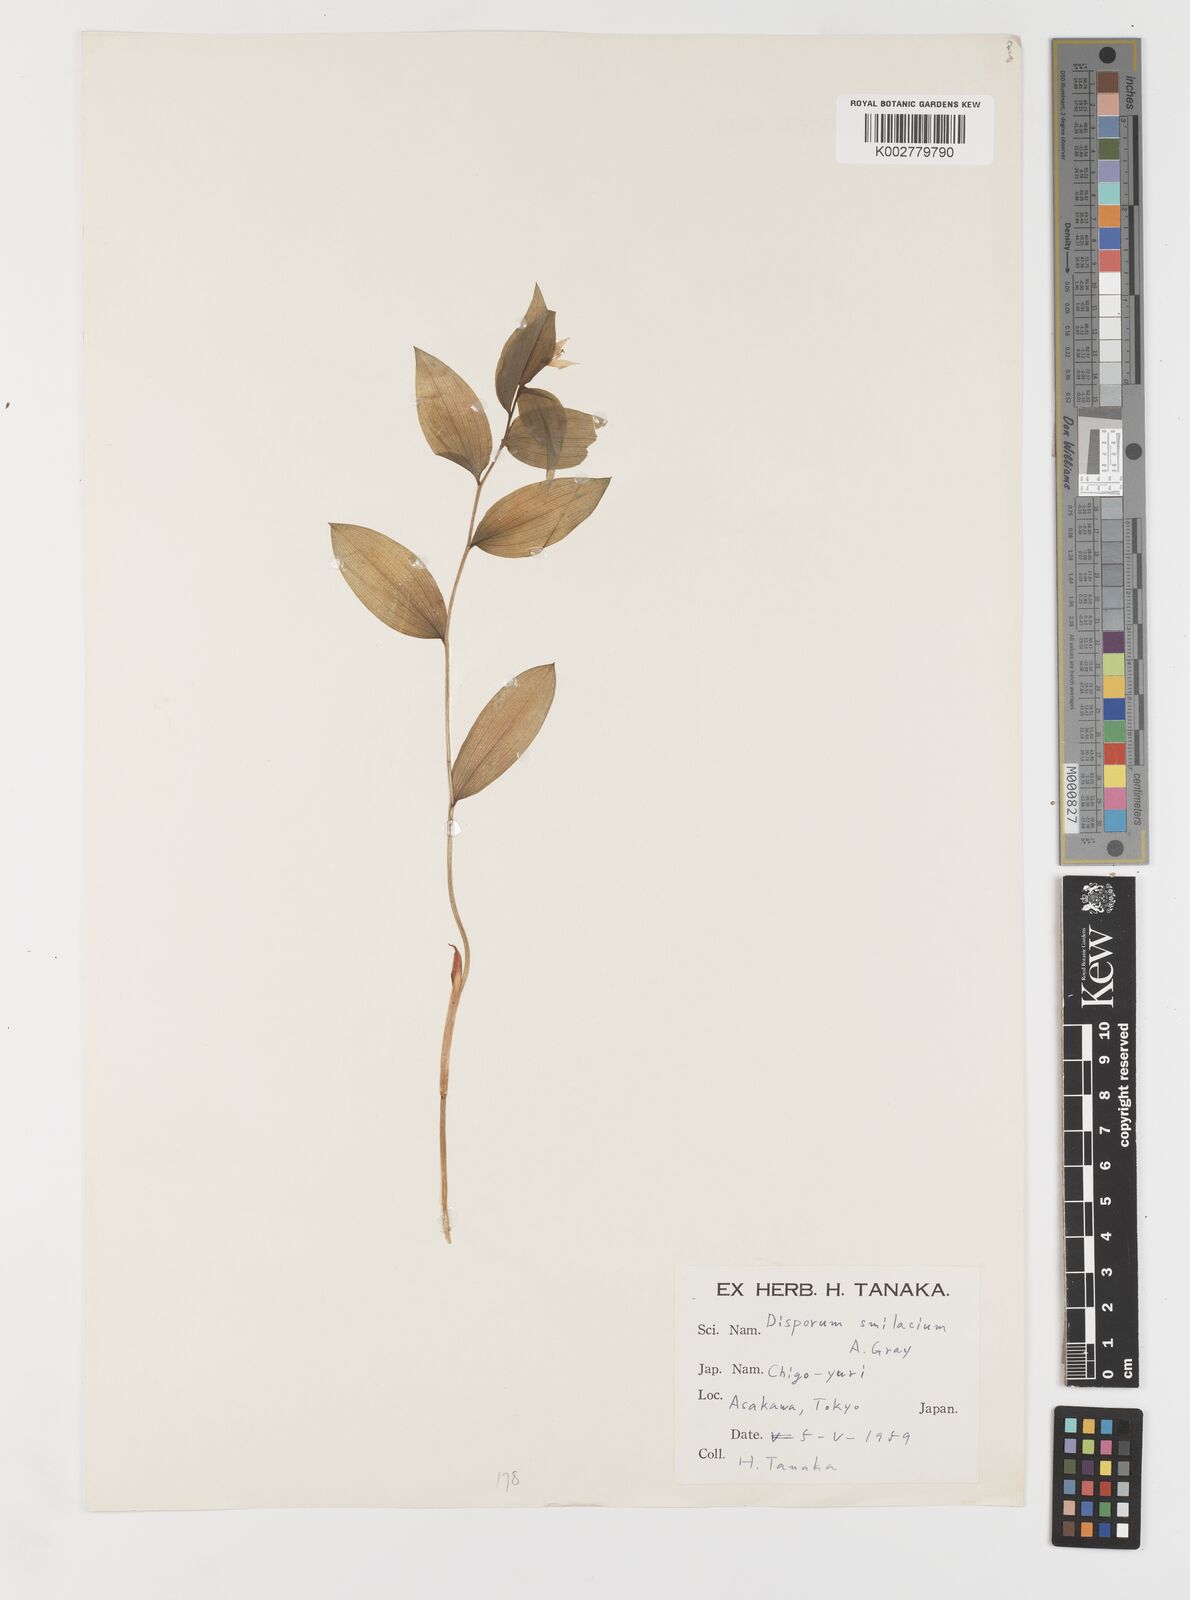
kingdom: Plantae
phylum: Tracheophyta
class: Liliopsida
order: Liliales
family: Colchicaceae
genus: Disporum
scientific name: Disporum smilacinum
